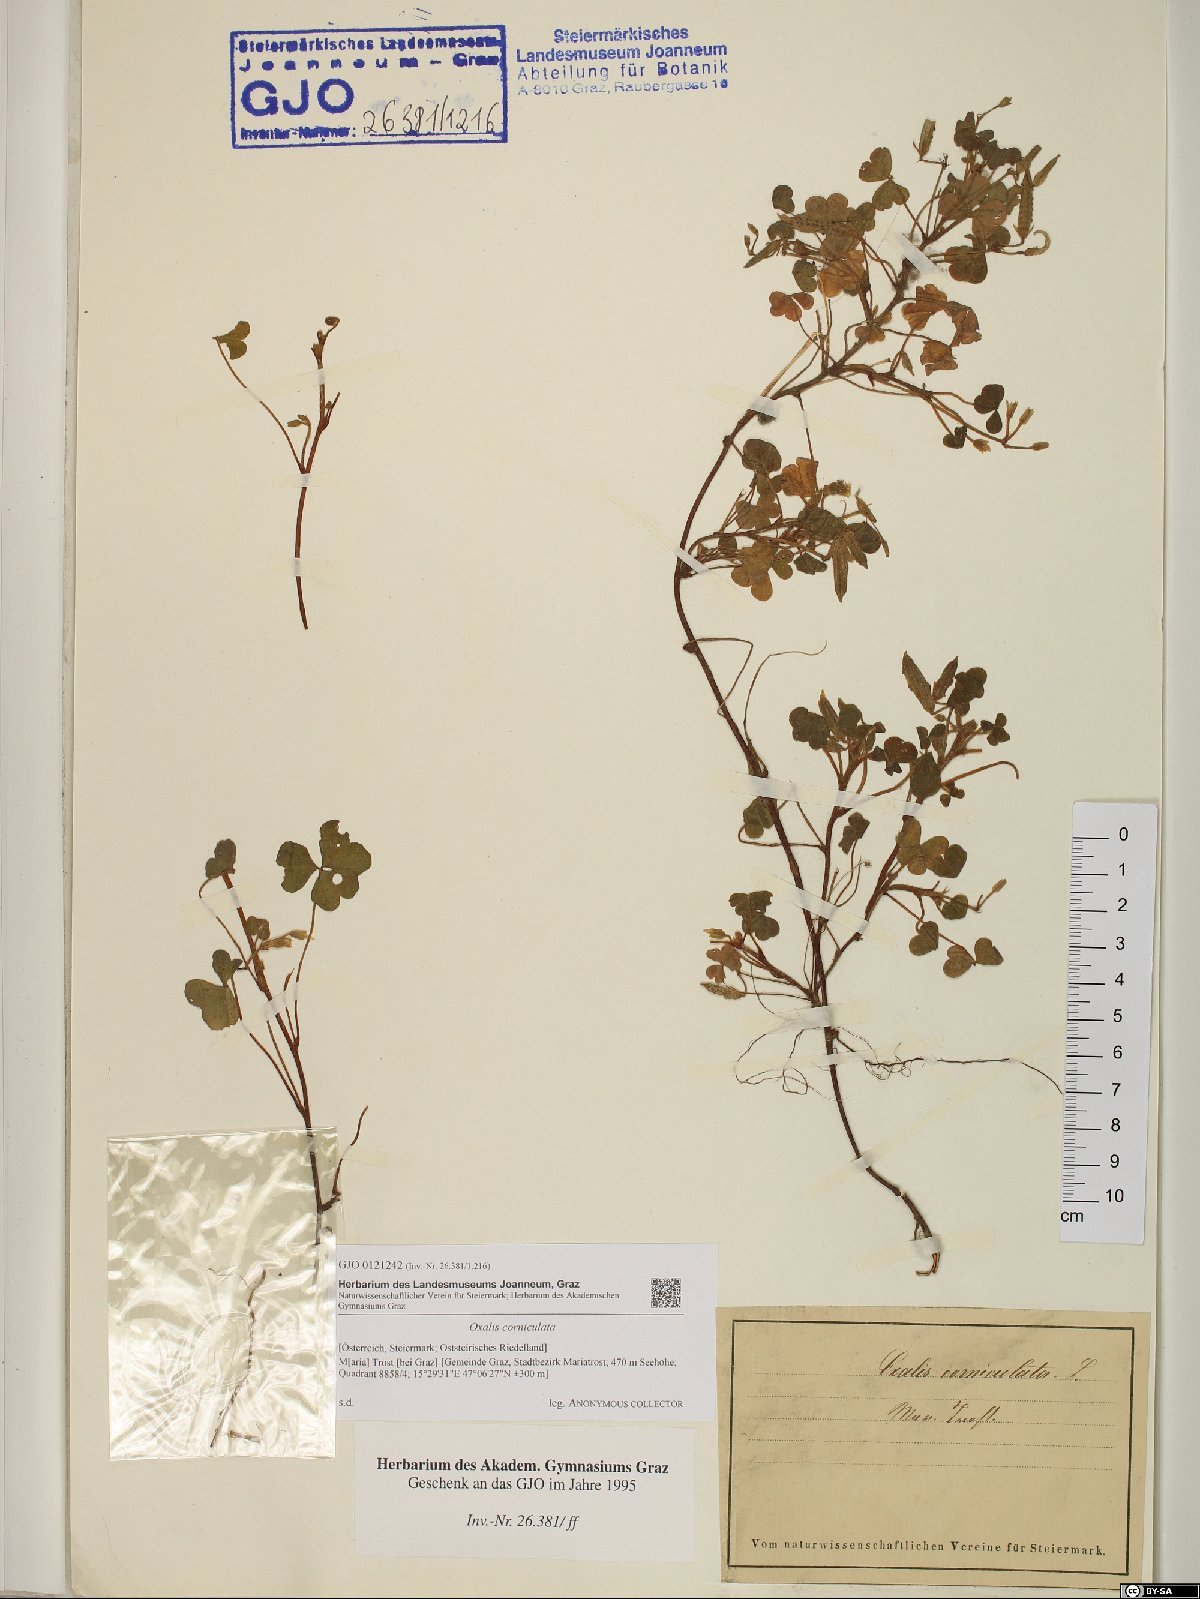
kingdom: Plantae
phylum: Tracheophyta
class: Magnoliopsida
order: Oxalidales
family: Oxalidaceae
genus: Oxalis
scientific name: Oxalis corniculata
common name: Procumbent yellow-sorrel
